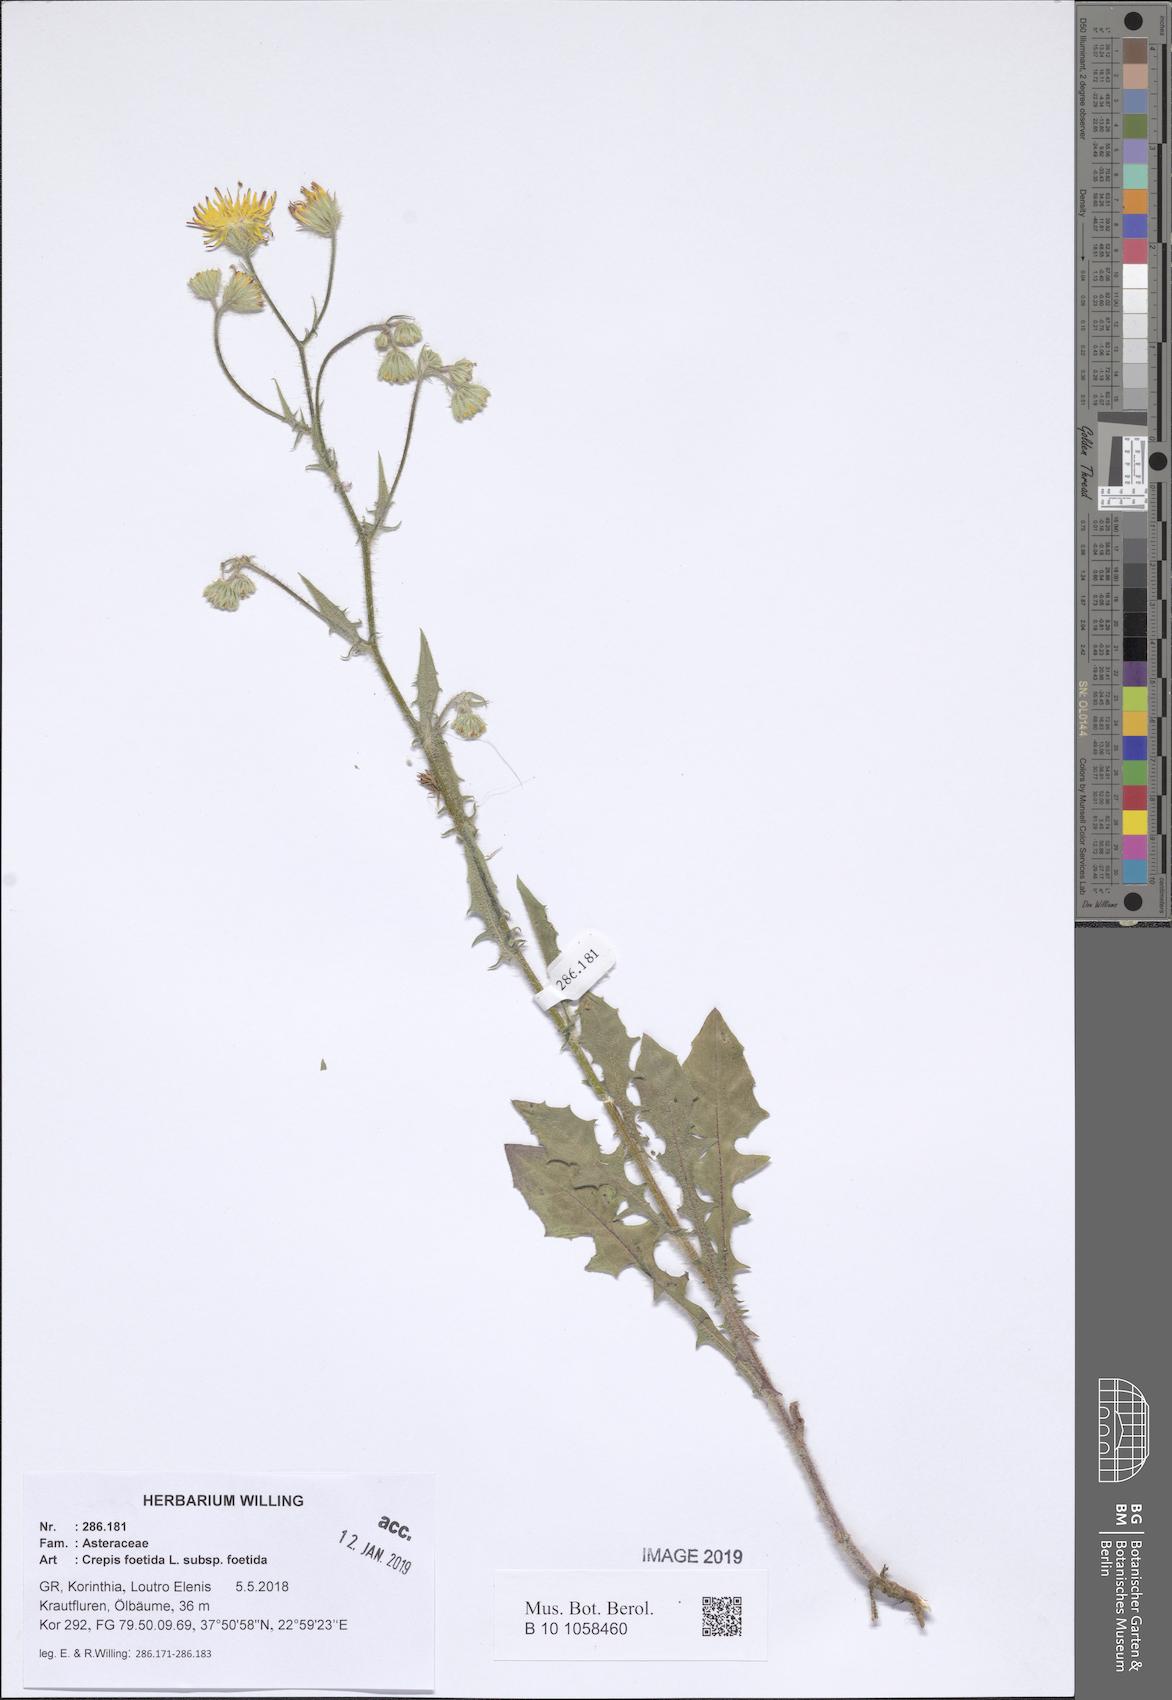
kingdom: Plantae
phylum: Tracheophyta
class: Magnoliopsida
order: Asterales
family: Asteraceae
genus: Crepis
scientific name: Crepis foetida
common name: Stinking hawk's-beard
